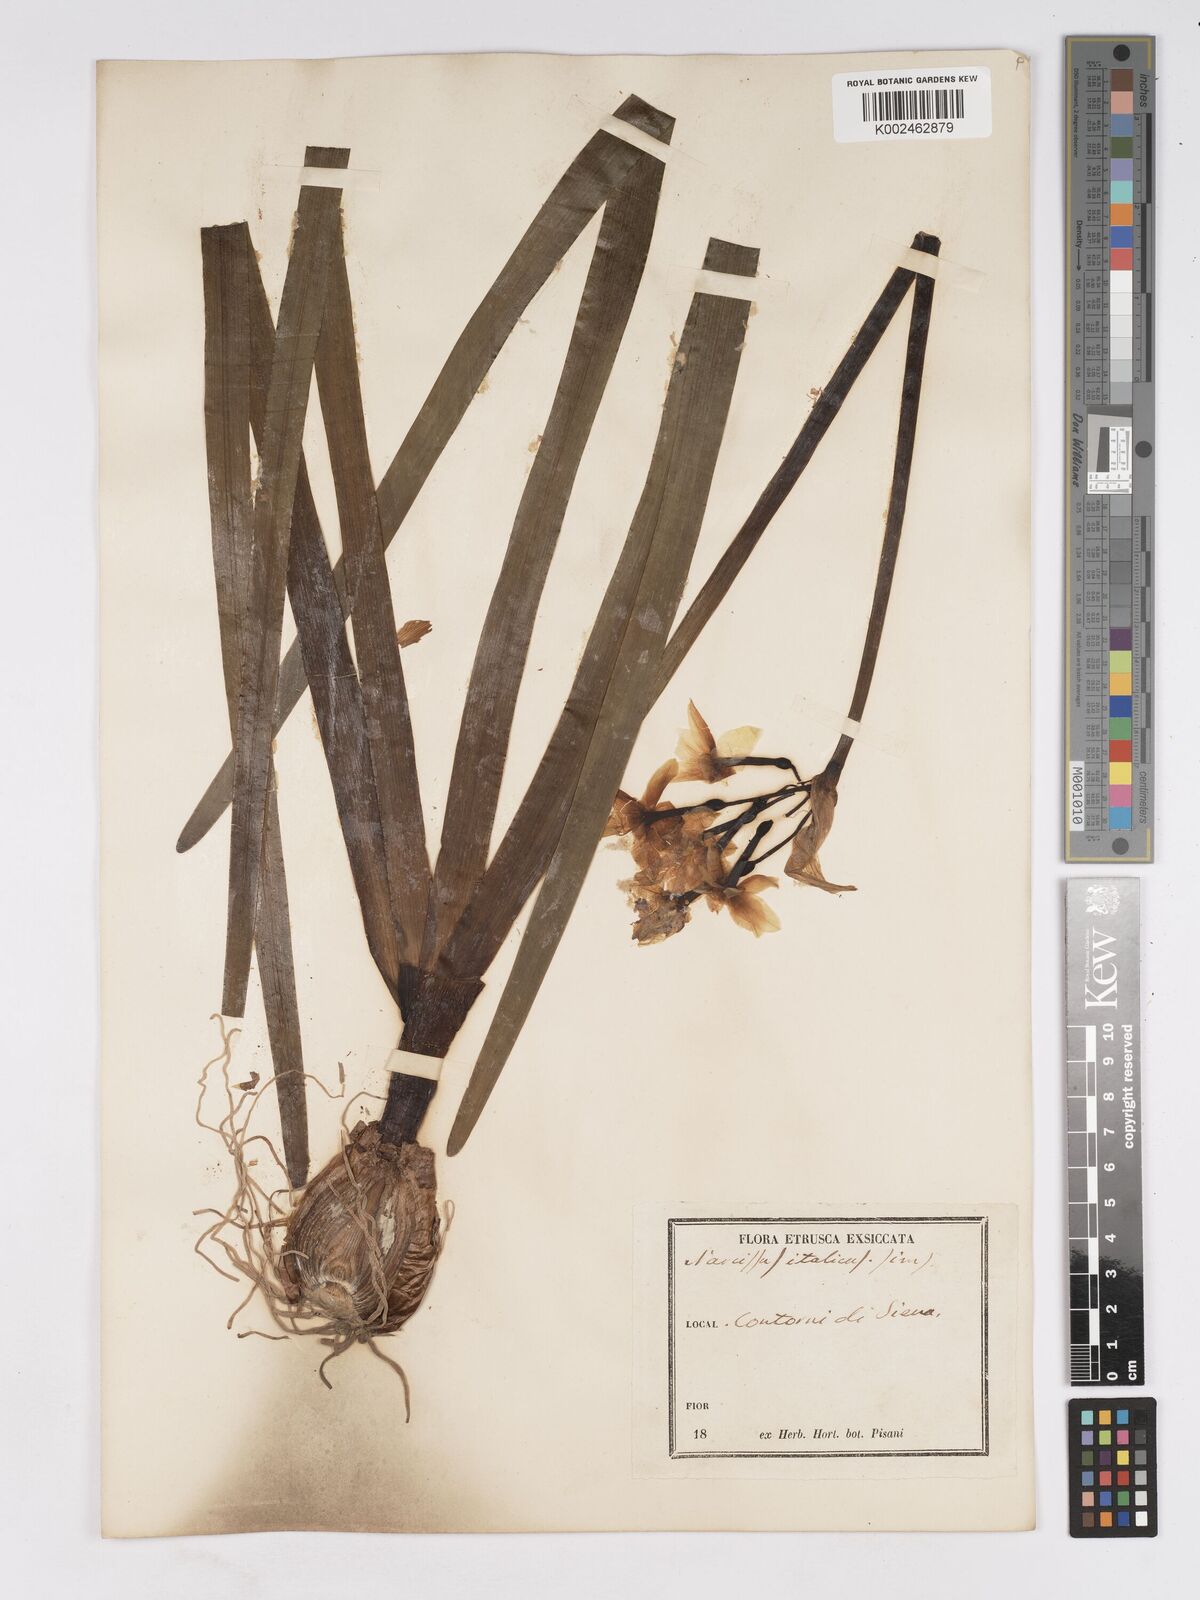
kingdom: Plantae
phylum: Tracheophyta
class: Liliopsida
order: Asparagales
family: Amaryllidaceae
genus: Narcissus
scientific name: Narcissus tazetta
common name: Bunch-flowered daffodil
